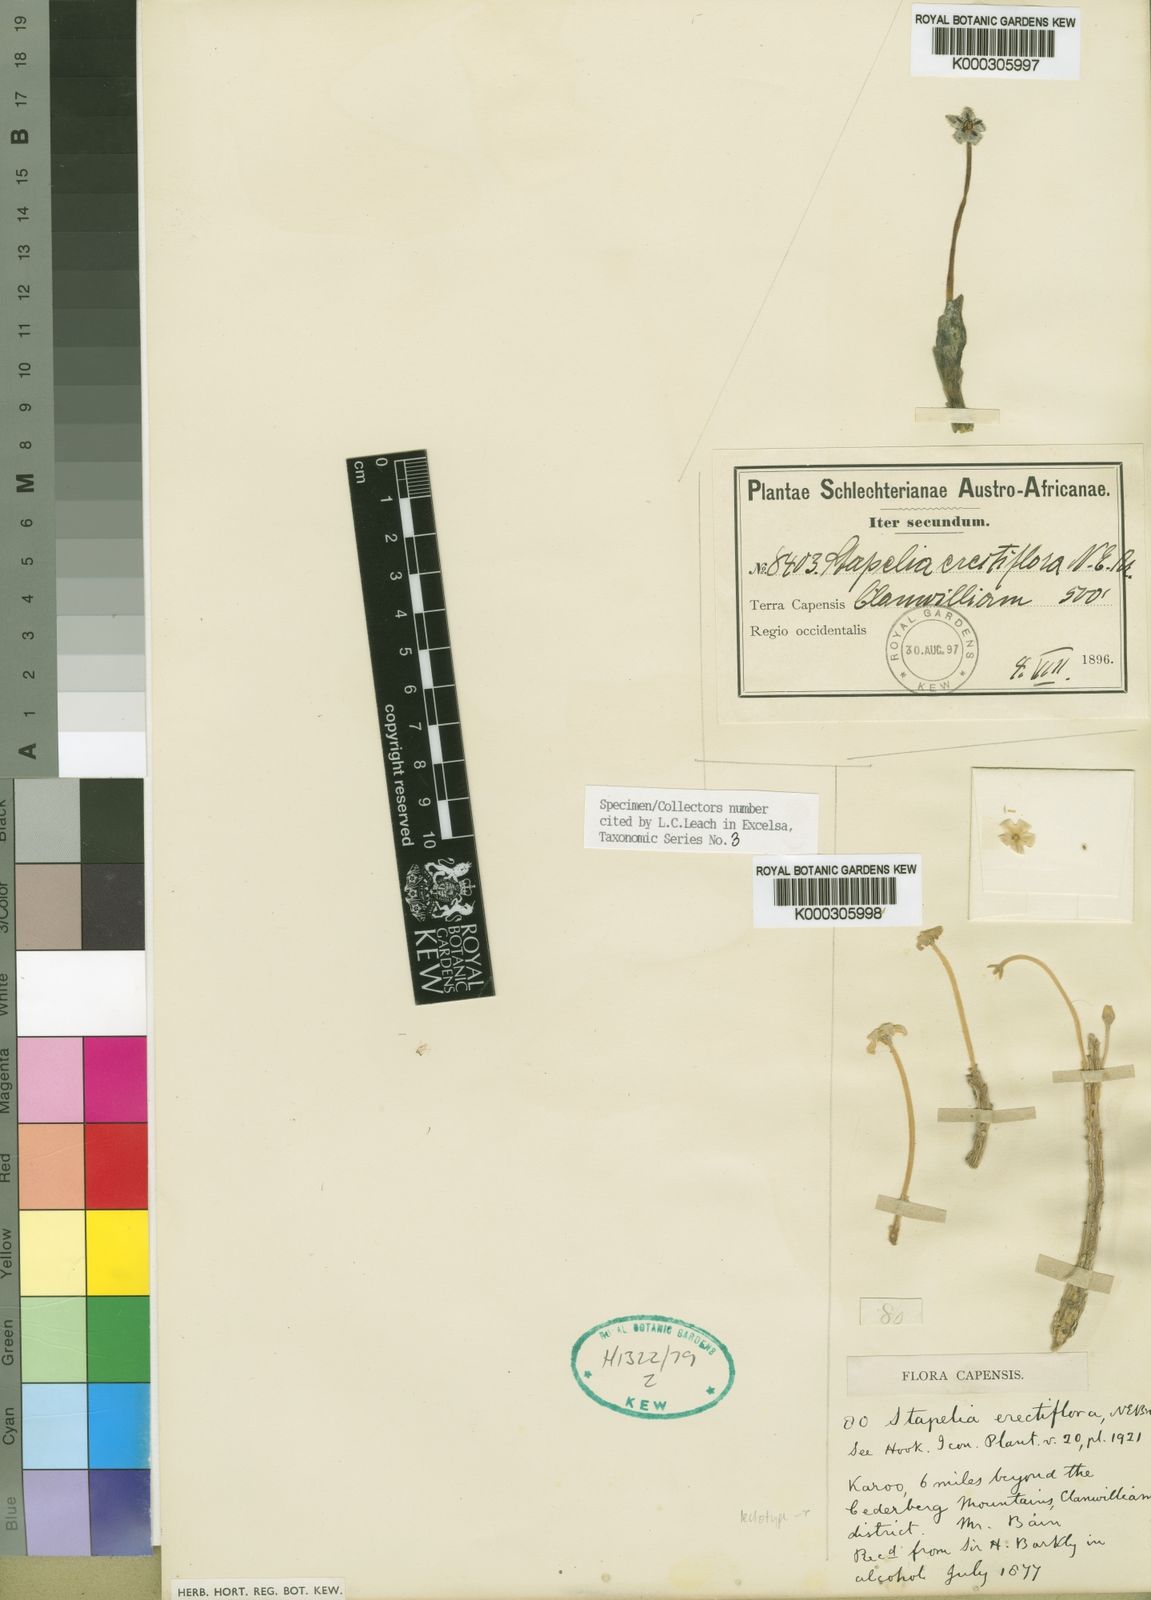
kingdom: Plantae
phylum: Tracheophyta
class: Magnoliopsida
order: Gentianales
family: Apocynaceae
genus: Ceropegia
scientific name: Ceropegia erectiflora
